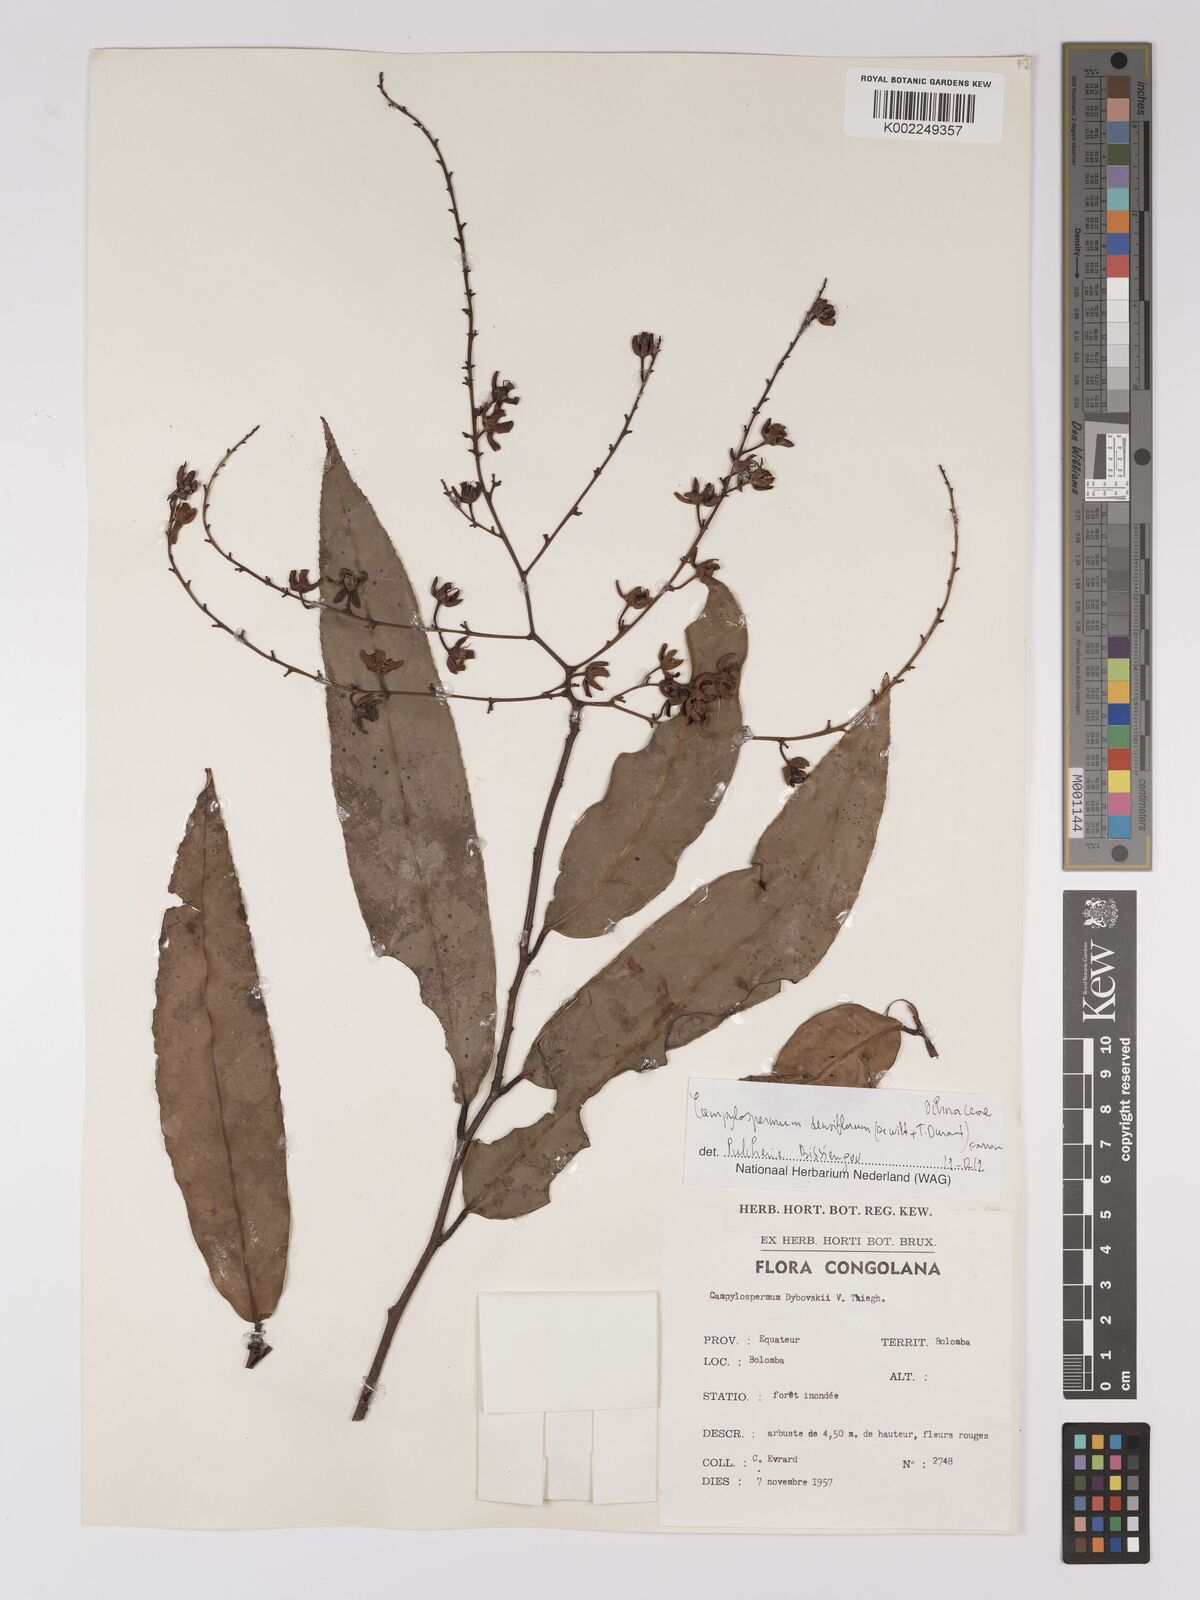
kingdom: Plantae
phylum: Tracheophyta
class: Magnoliopsida
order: Malpighiales
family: Ochnaceae
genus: Gomphia
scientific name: Gomphia densiflora
